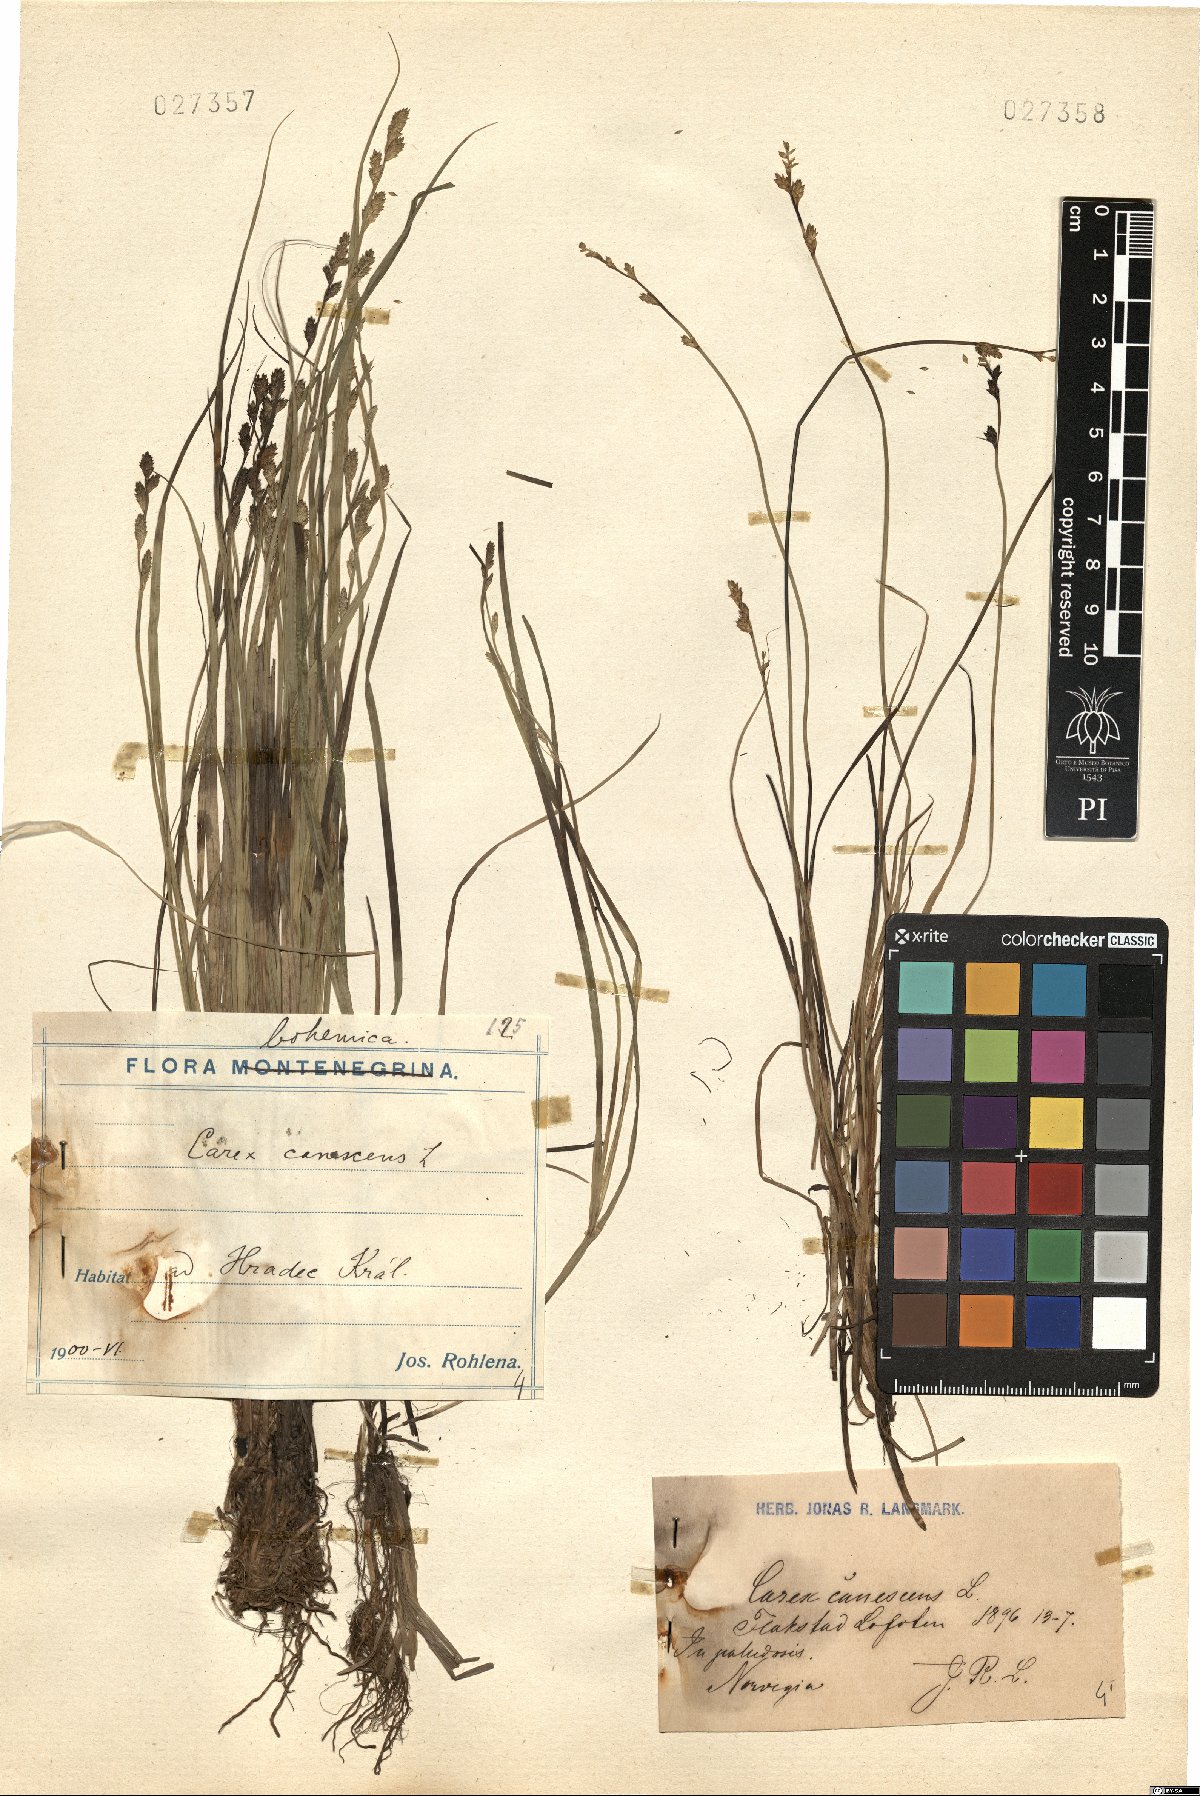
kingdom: Plantae
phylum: Tracheophyta
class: Liliopsida
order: Poales
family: Cyperaceae
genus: Carex
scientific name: Carex canescens
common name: White sedge
